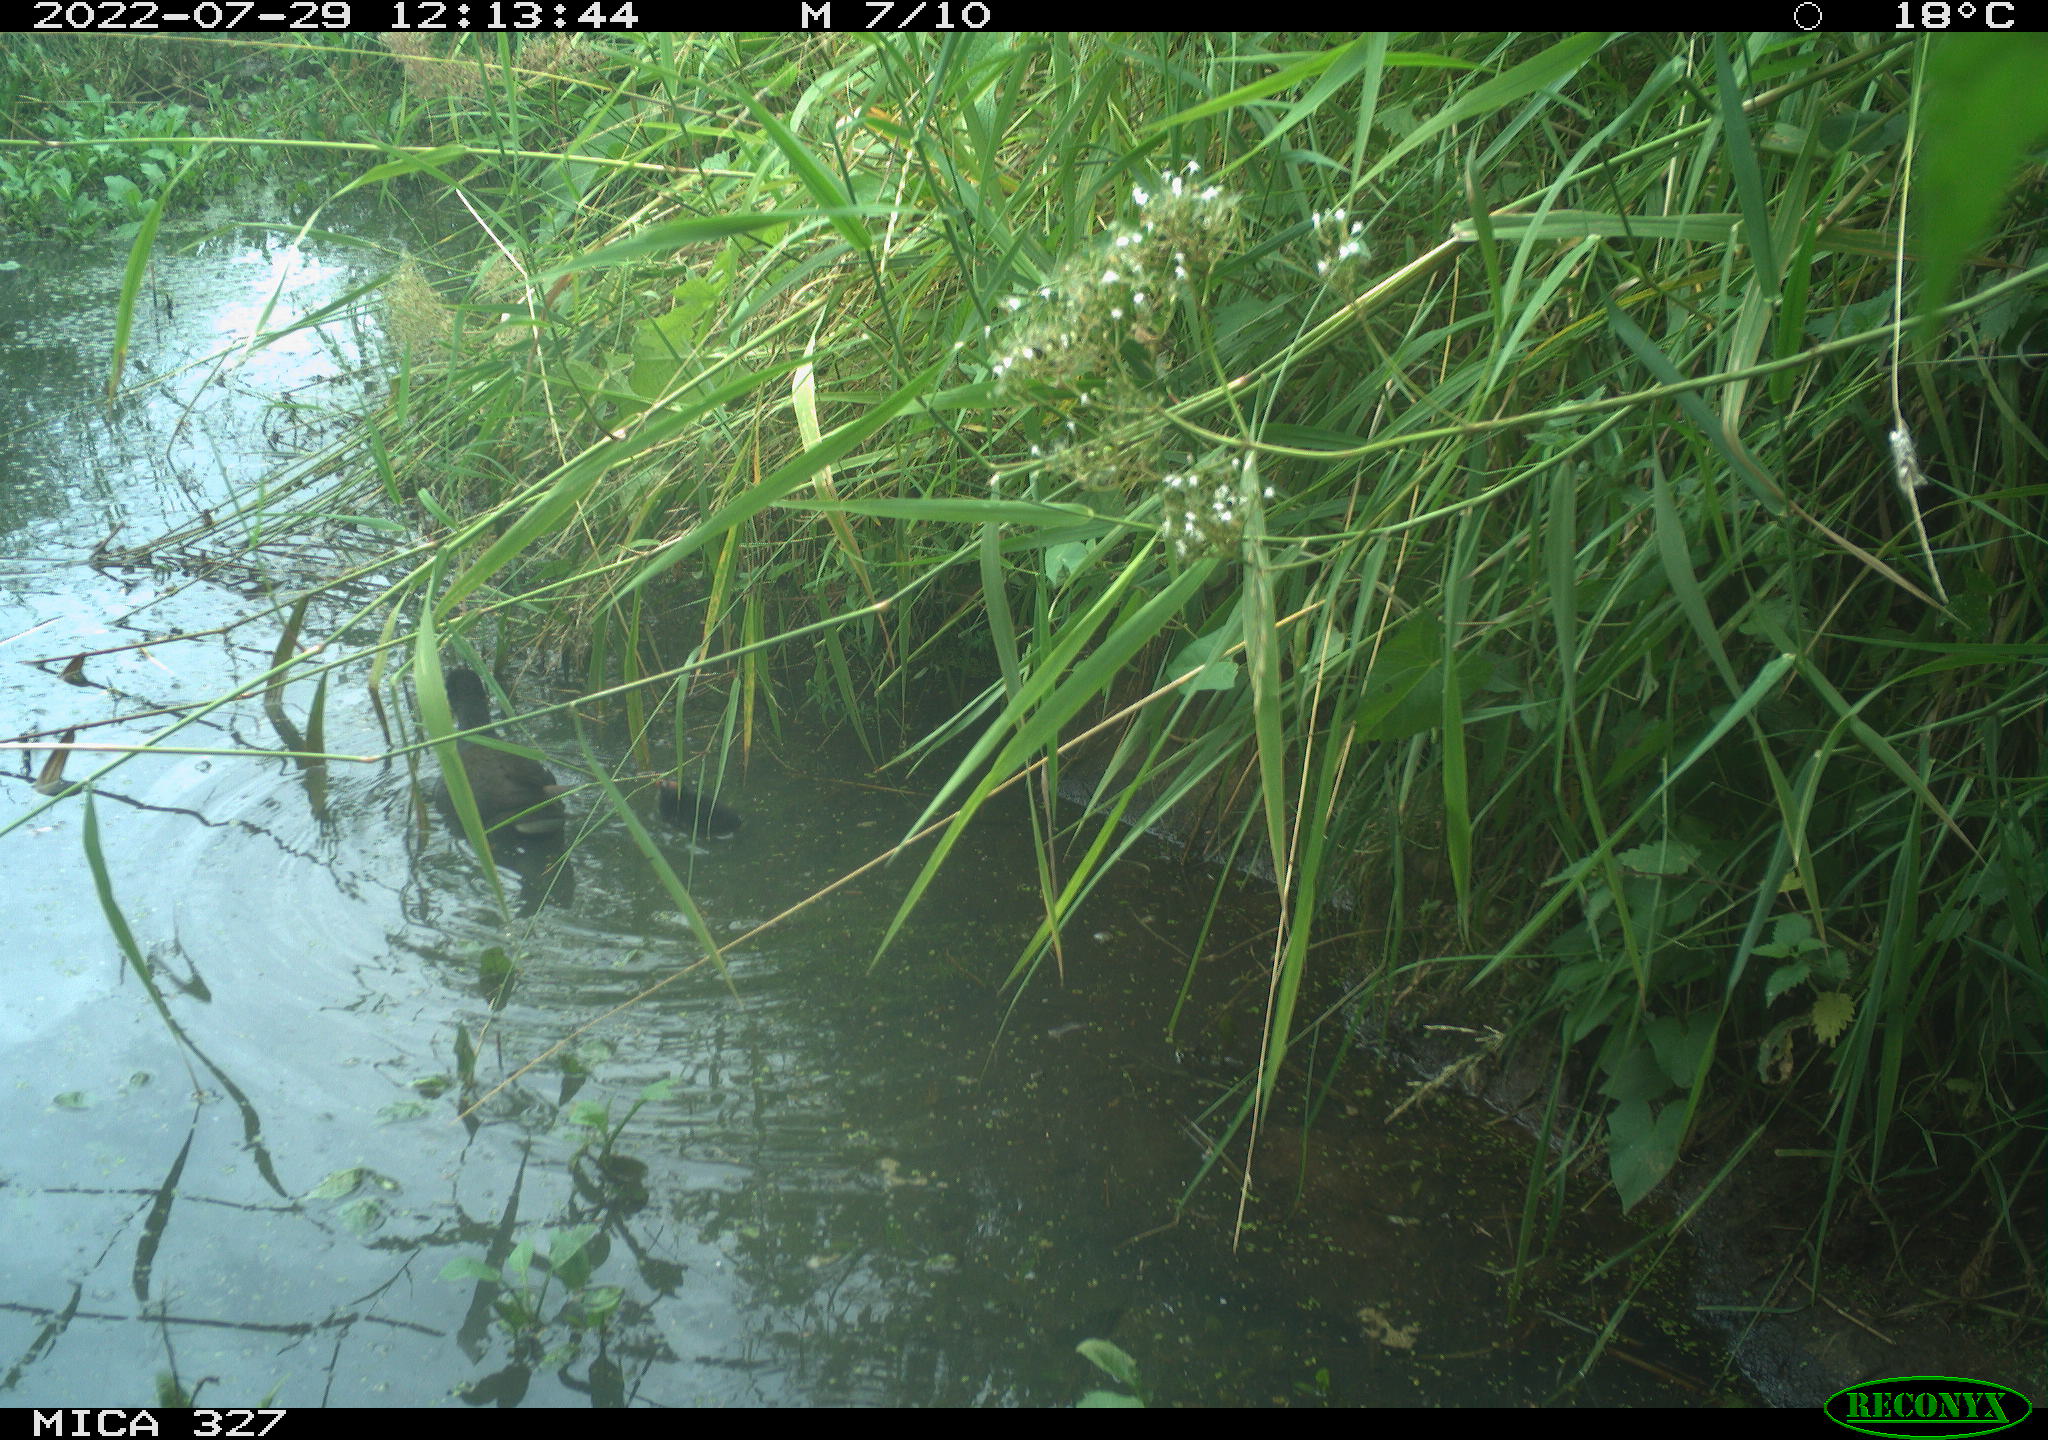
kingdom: Animalia
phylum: Chordata
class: Aves
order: Gruiformes
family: Rallidae
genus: Gallinula
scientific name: Gallinula chloropus
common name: Common moorhen
